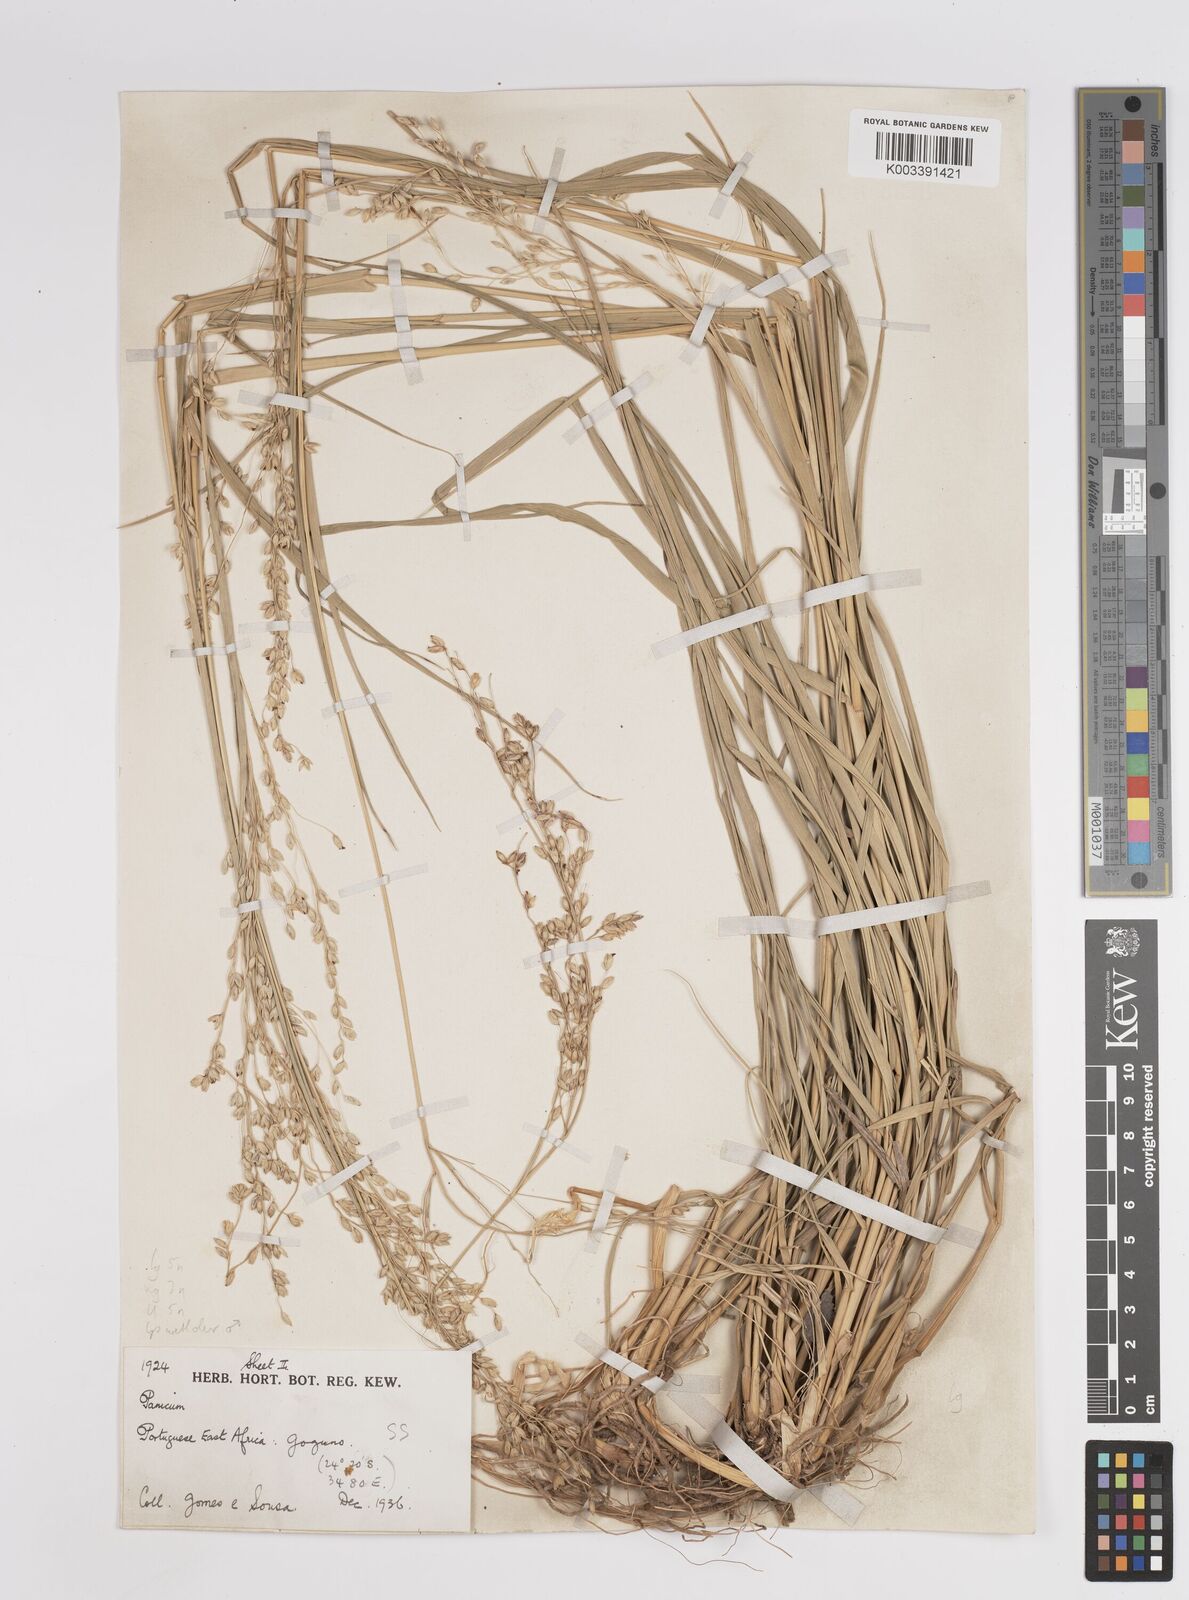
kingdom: Plantae
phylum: Tracheophyta
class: Liliopsida
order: Poales
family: Poaceae
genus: Panicum
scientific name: Panicum deustum
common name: Reed panicum
